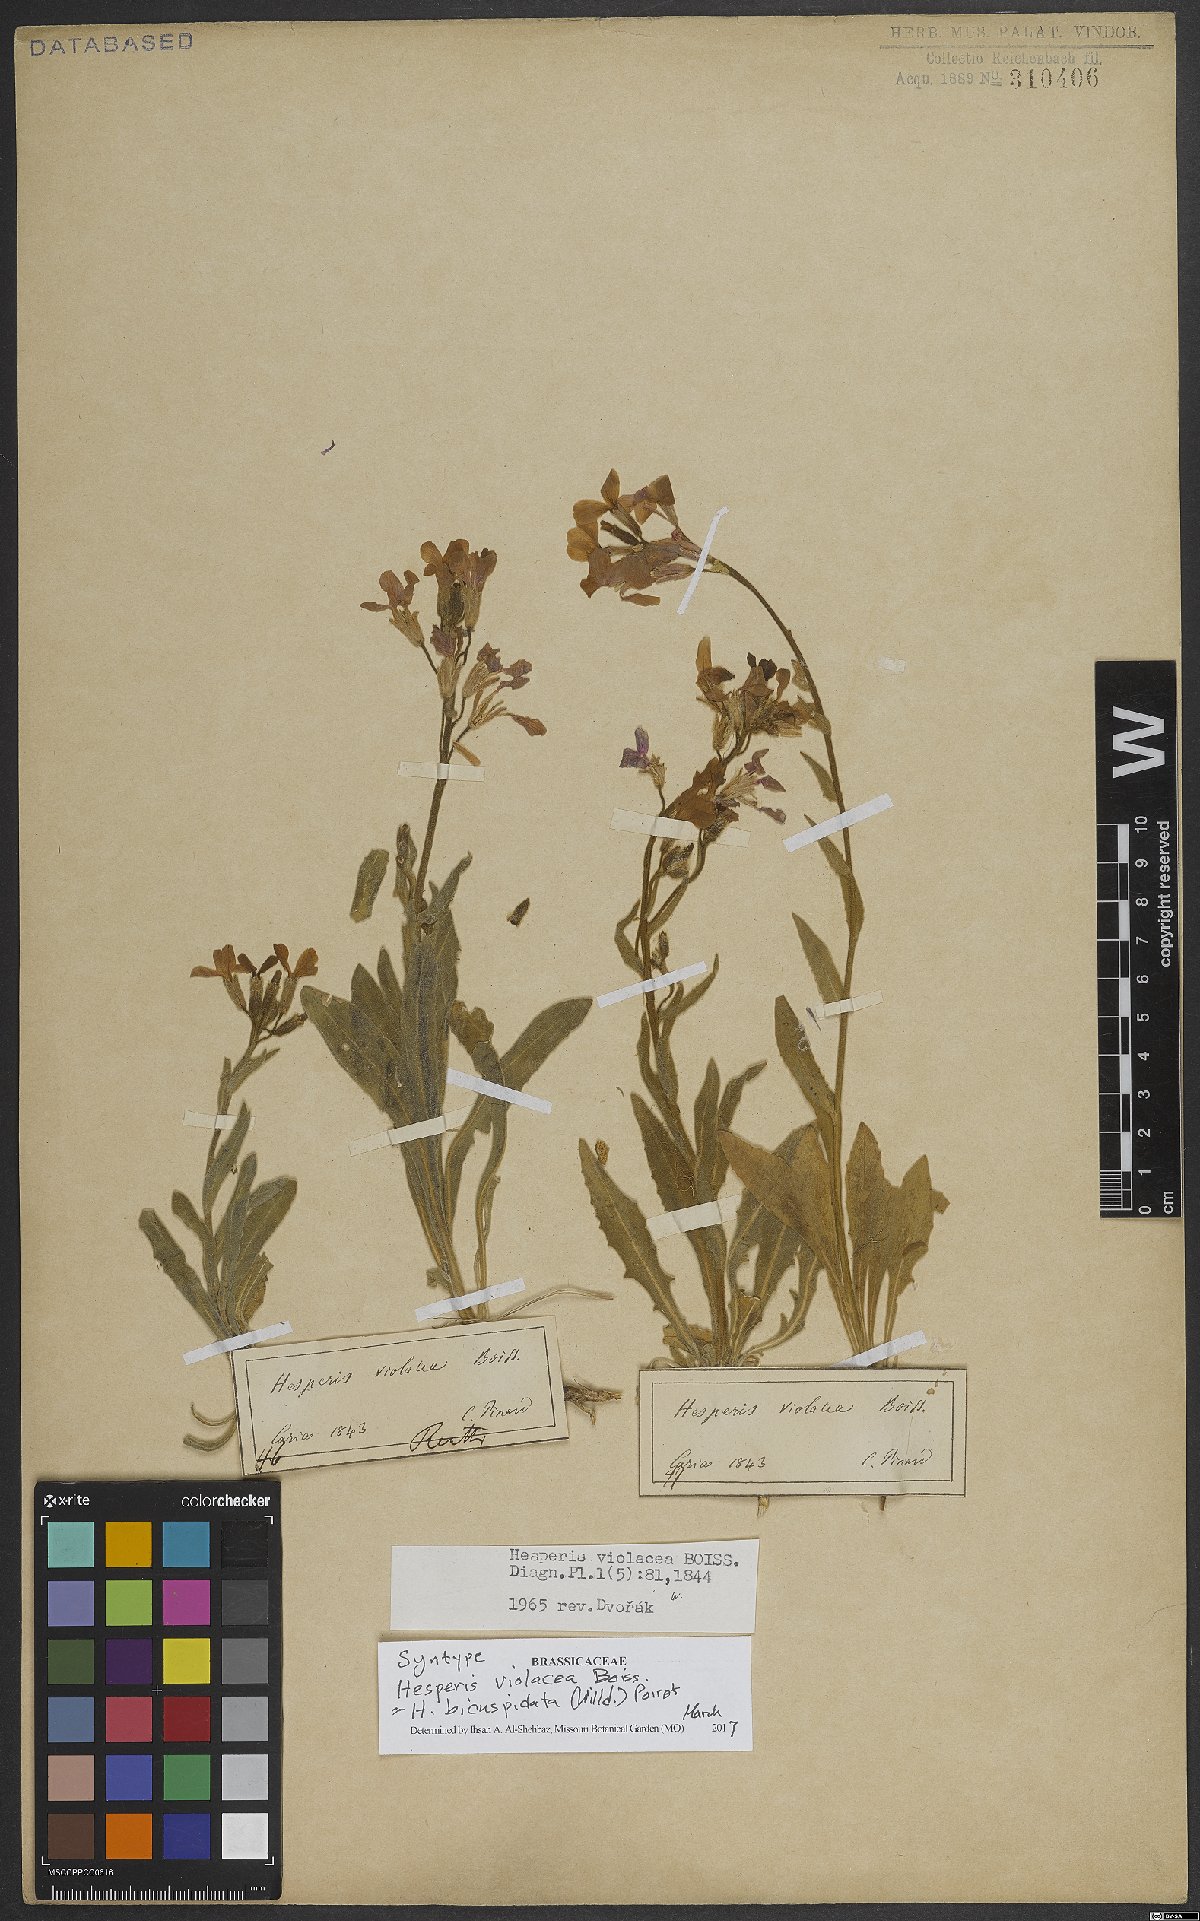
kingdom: Plantae
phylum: Tracheophyta
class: Magnoliopsida
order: Brassicales
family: Brassicaceae
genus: Hesperis
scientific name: Hesperis bicuspidata
